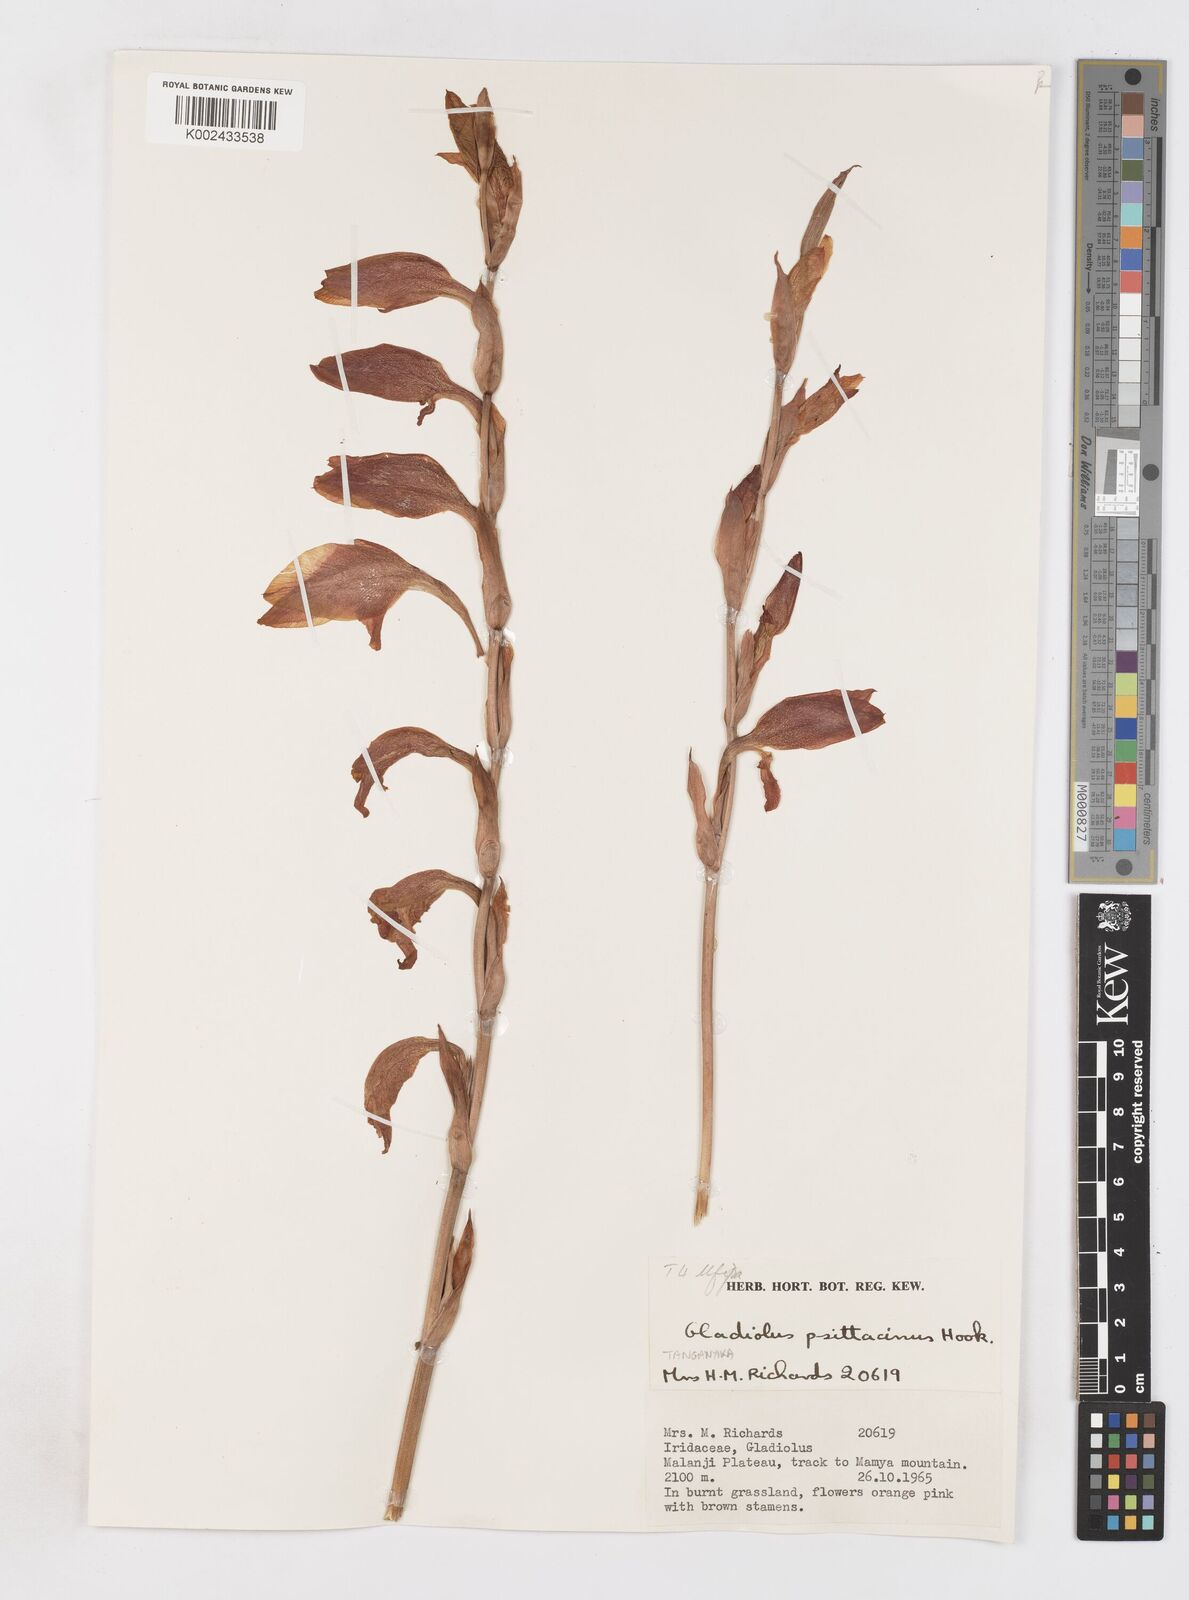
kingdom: Plantae
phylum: Tracheophyta
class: Liliopsida
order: Asparagales
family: Iridaceae
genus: Gladiolus
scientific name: Gladiolus dalenii
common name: Cornflag
